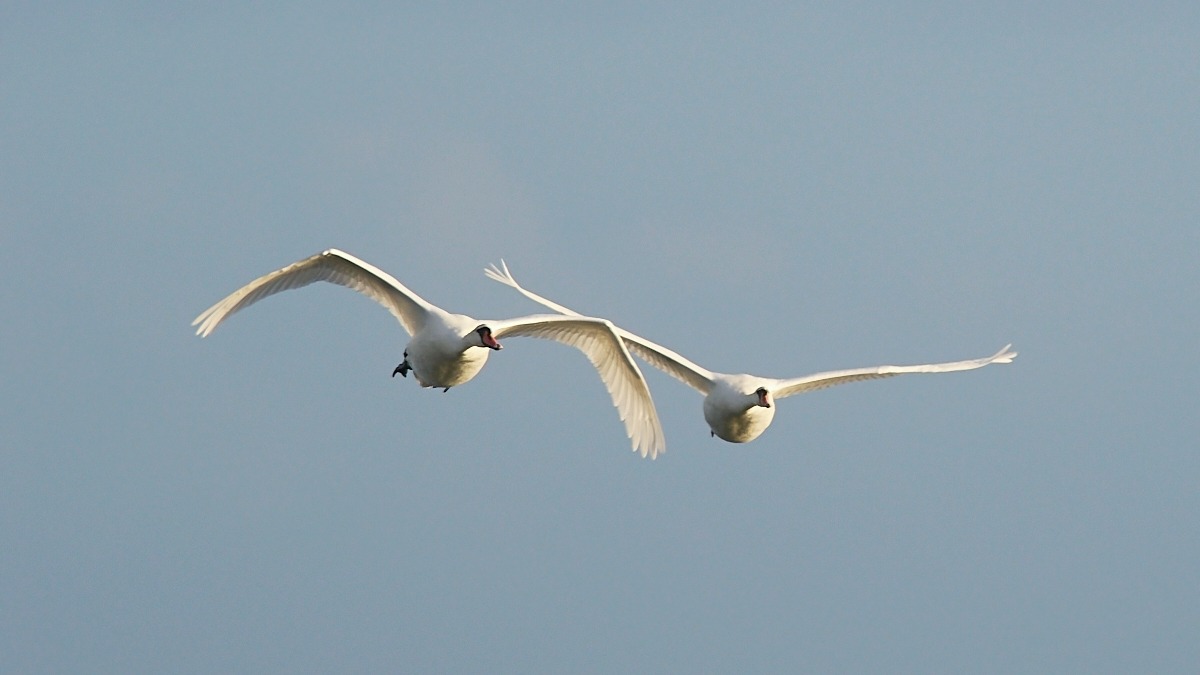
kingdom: Animalia
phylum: Chordata
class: Aves
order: Anseriformes
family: Anatidae
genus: Cygnus
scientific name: Cygnus olor
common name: Knopsvane
